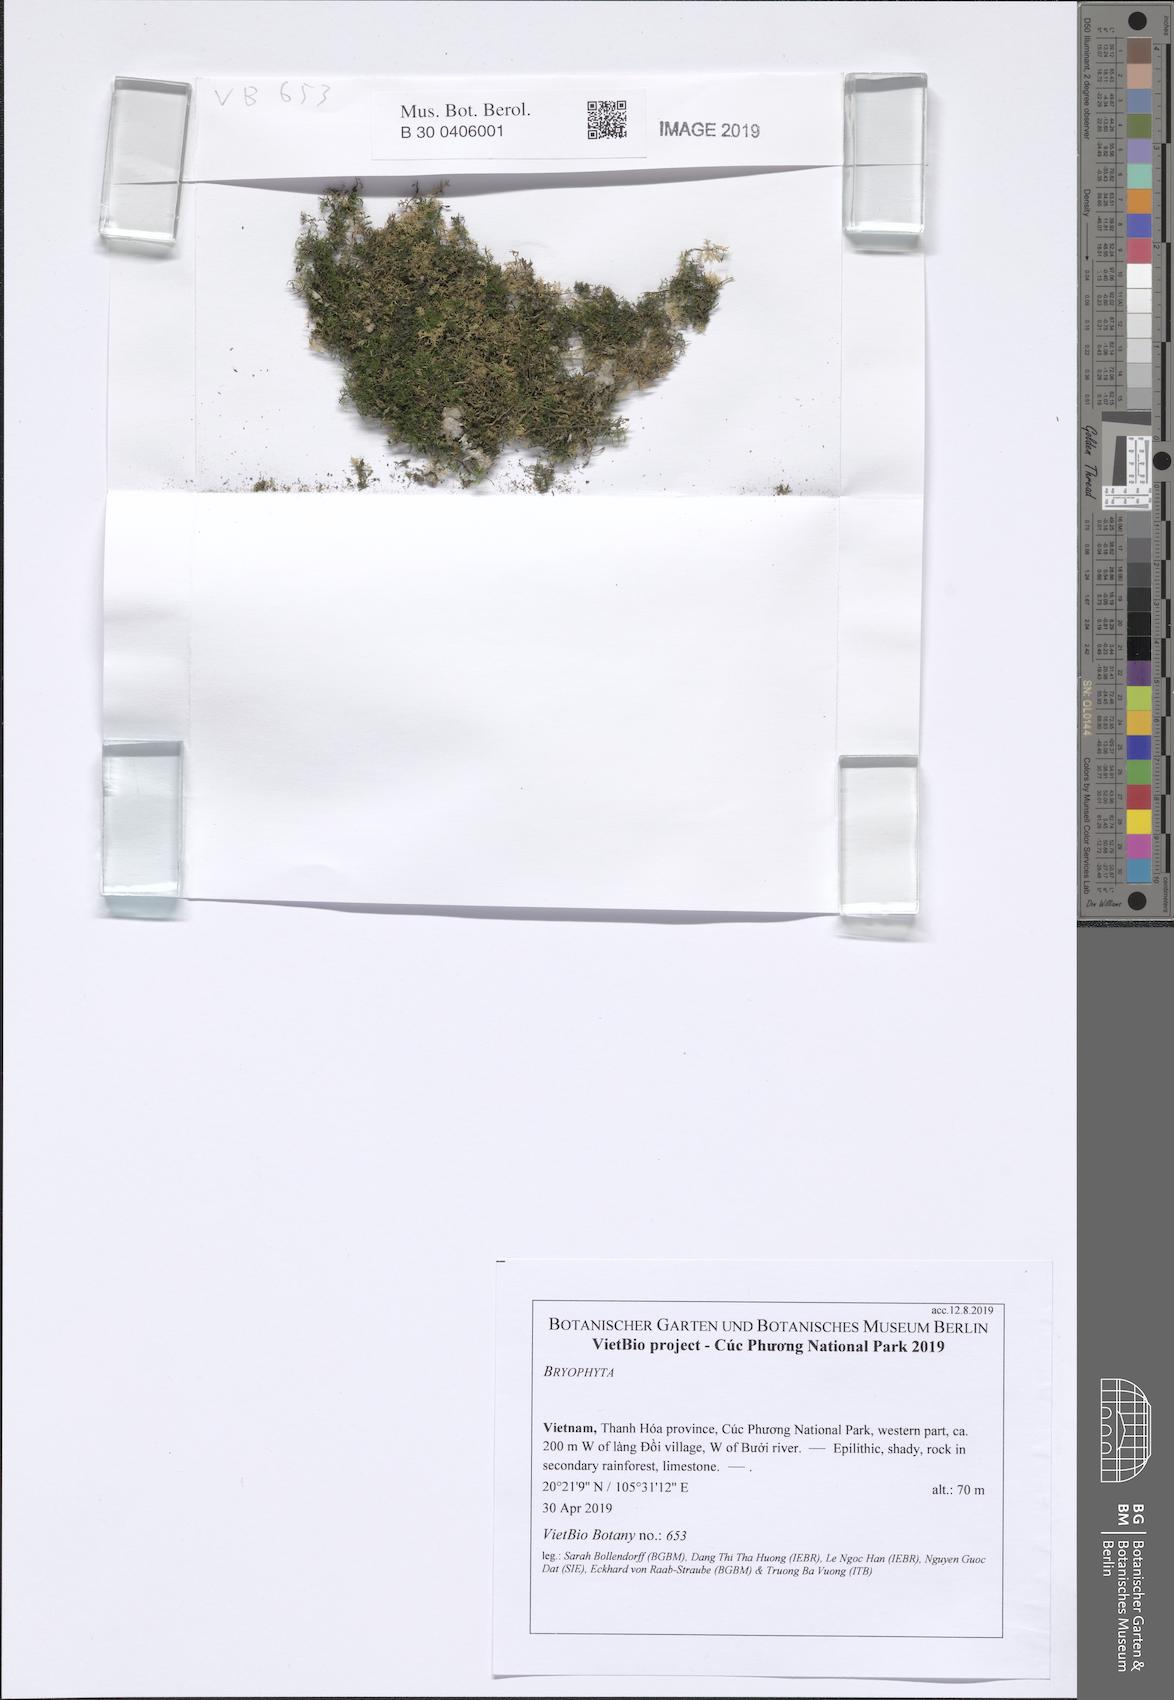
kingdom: Plantae
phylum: Bryophyta
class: Bryopsida
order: Hypnales
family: Thuidiaceae
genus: Pelekium
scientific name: Pelekium velatum
